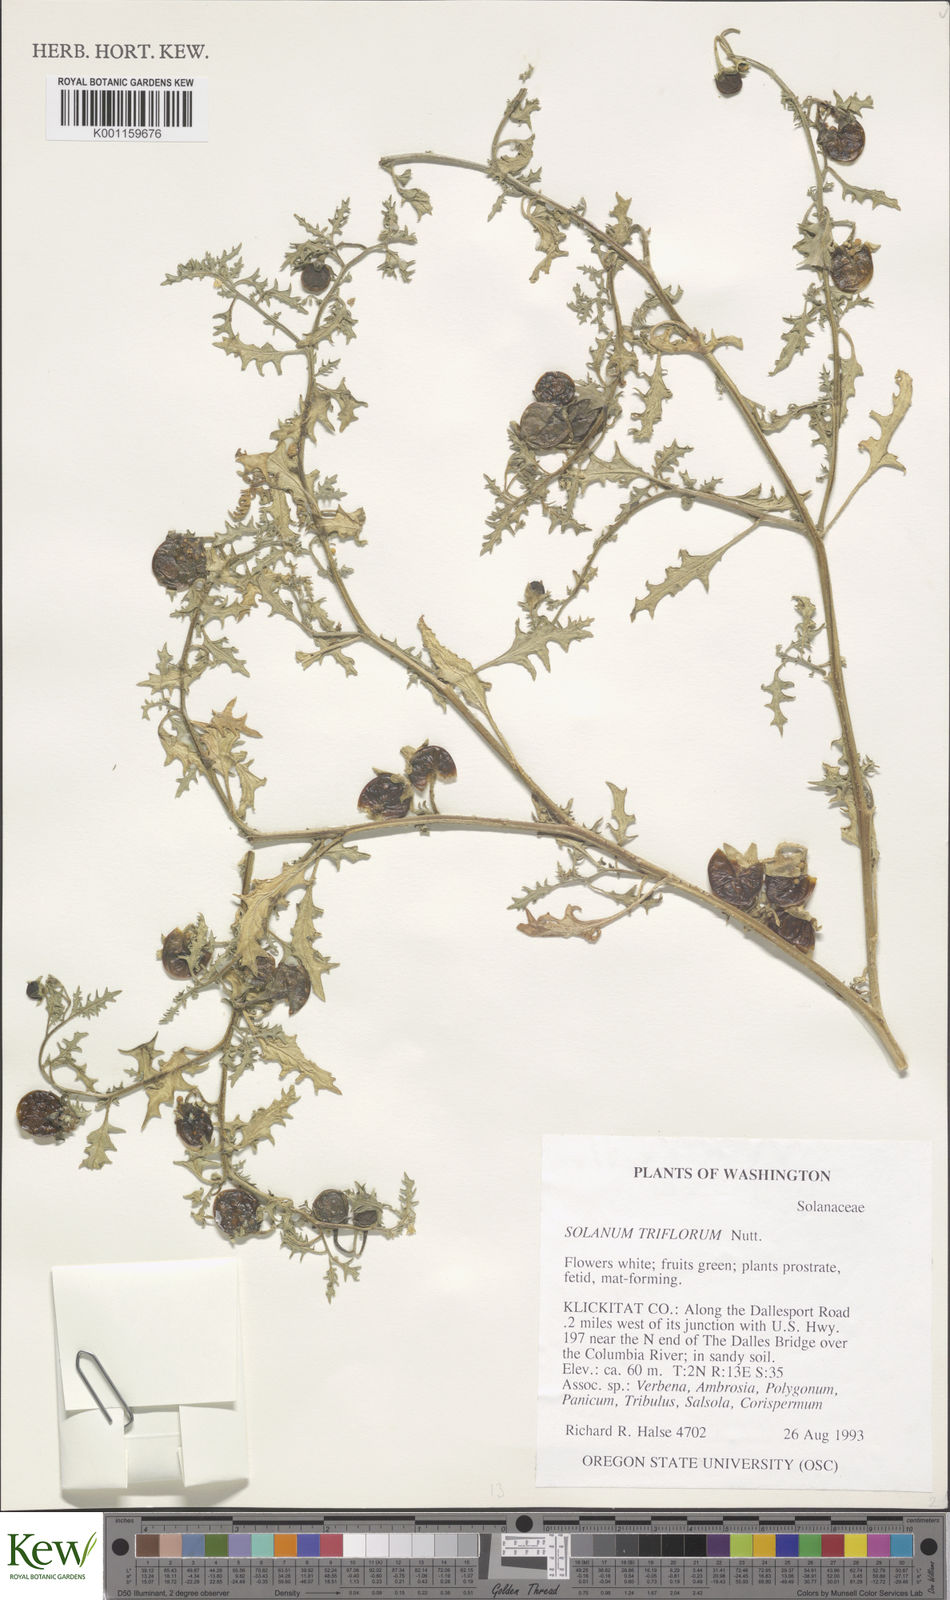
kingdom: Plantae
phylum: Tracheophyta
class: Magnoliopsida
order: Solanales
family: Solanaceae
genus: Solanum
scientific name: Solanum triflorum
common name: Small nightshade
